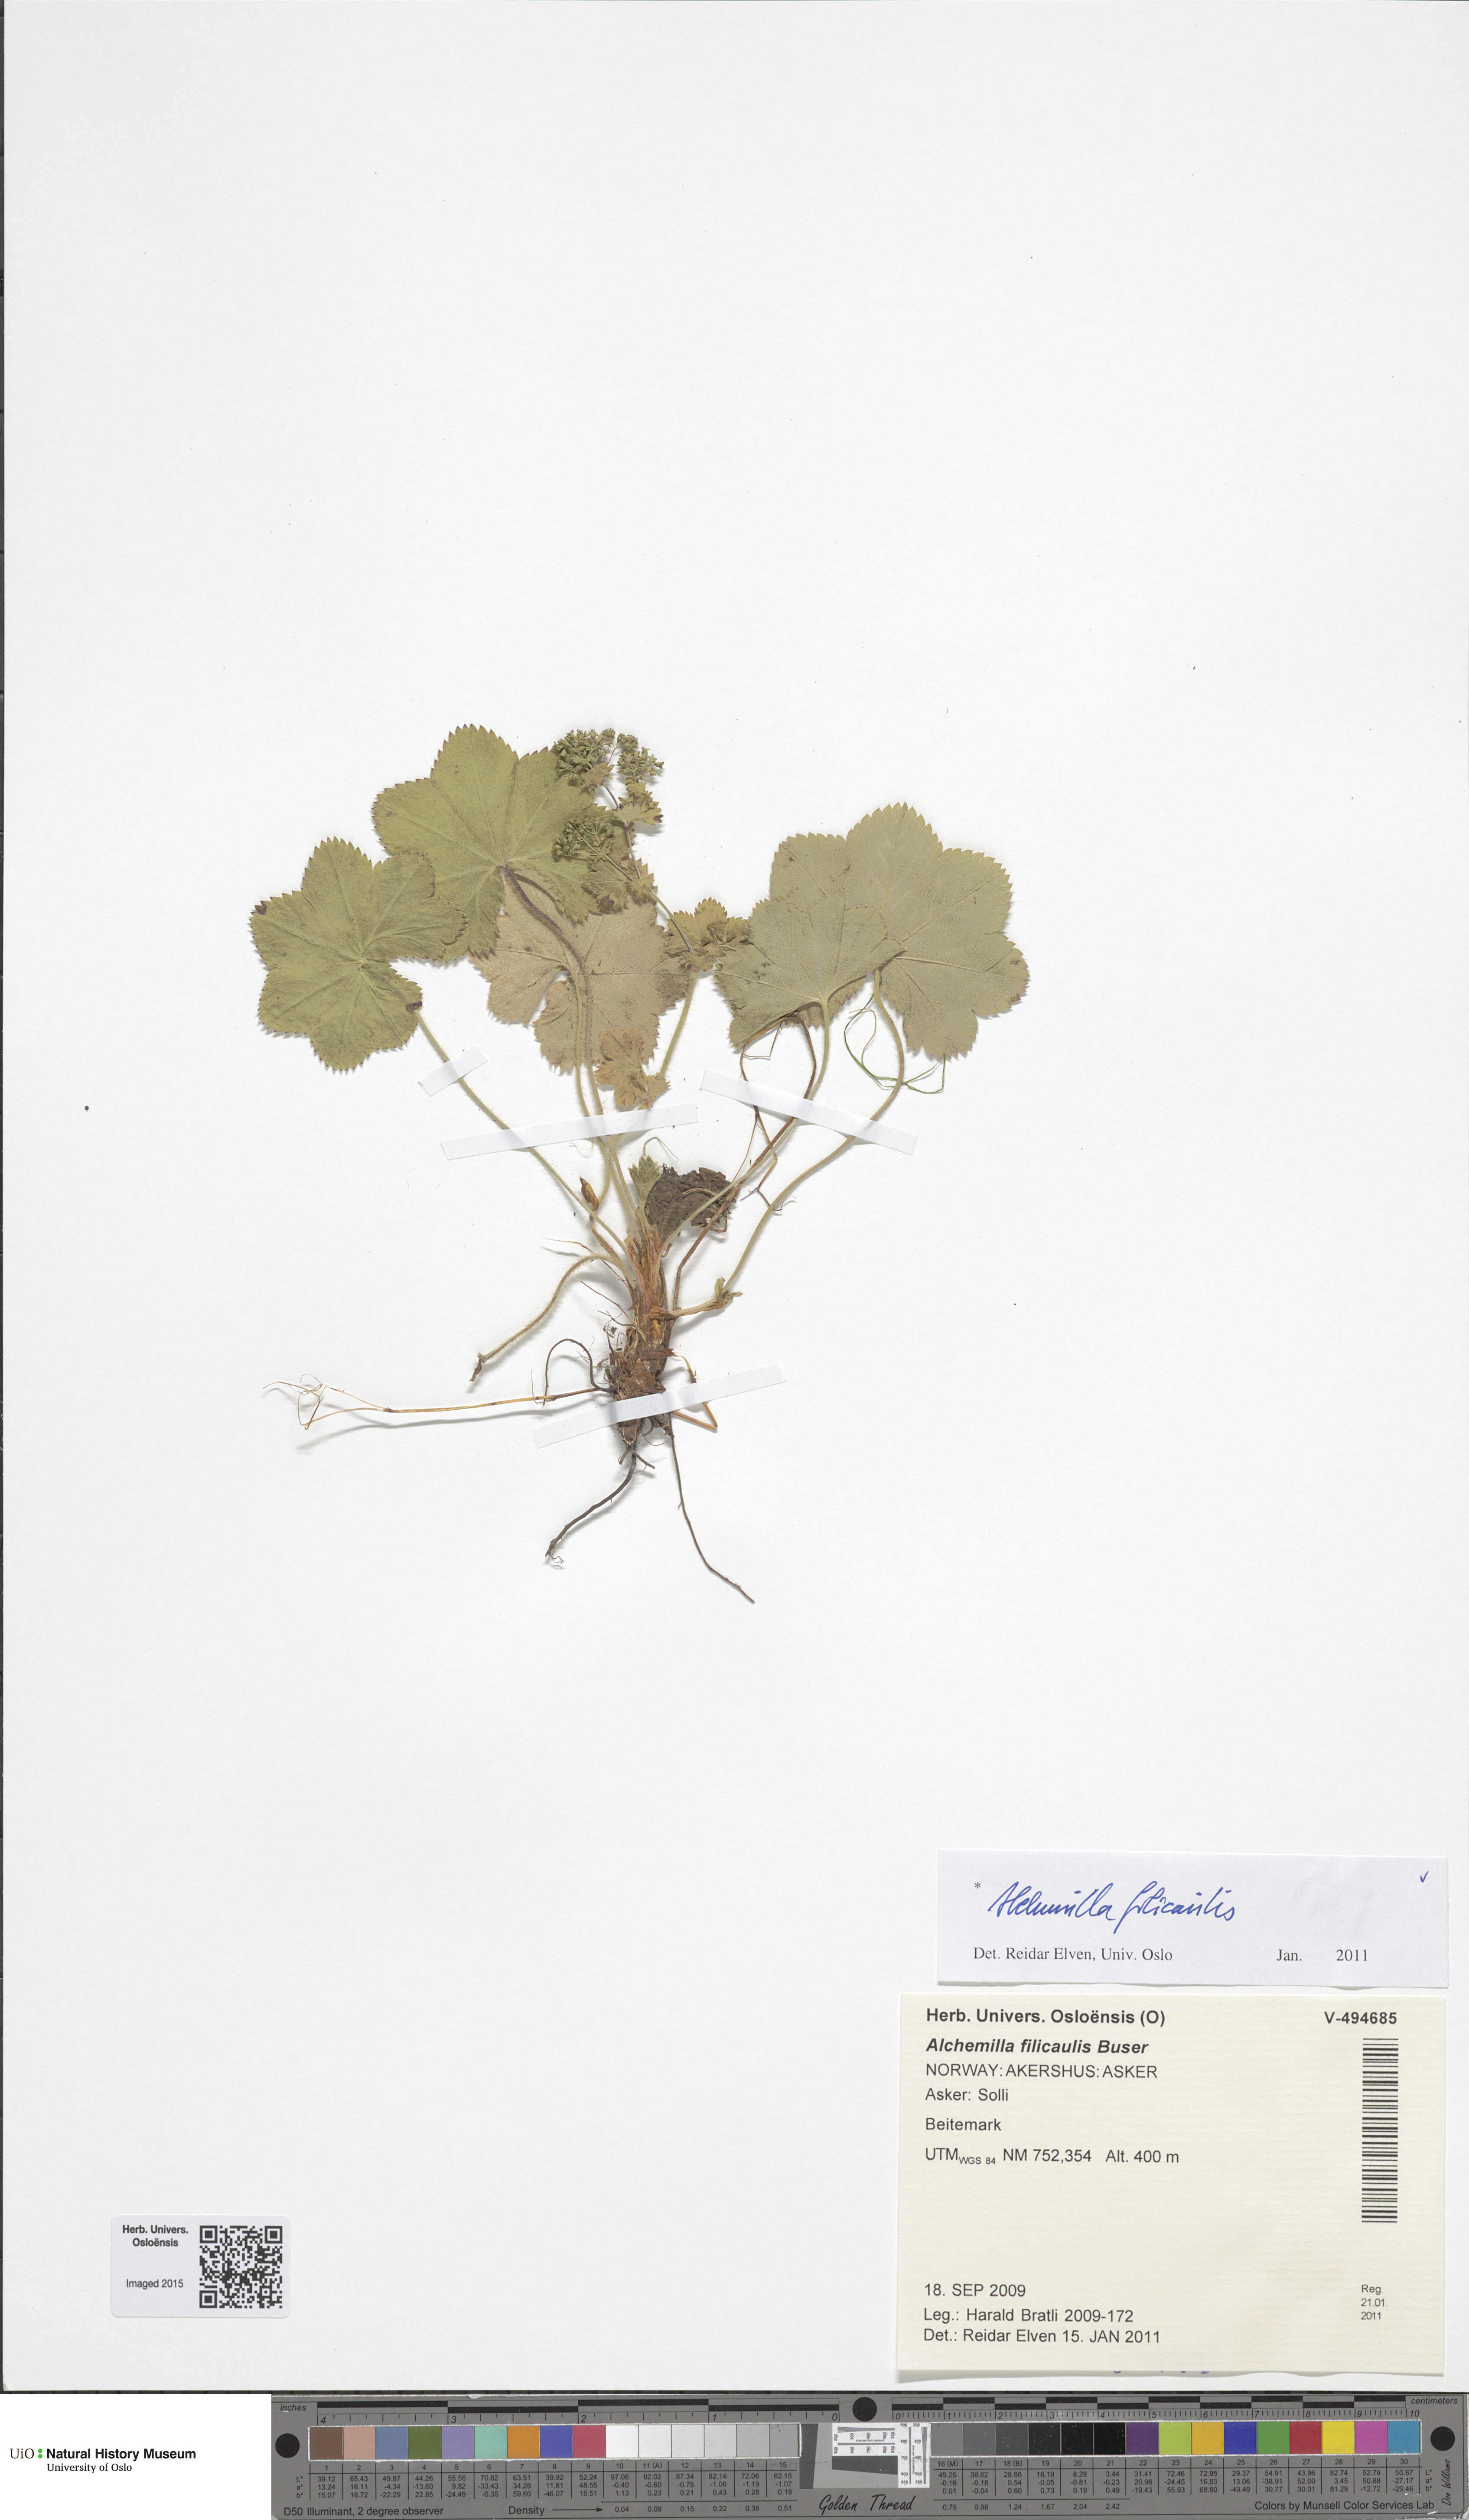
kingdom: Plantae
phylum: Tracheophyta
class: Magnoliopsida
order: Rosales
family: Rosaceae
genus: Alchemilla
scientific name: Alchemilla filicaulis
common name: Hairy lady's-mantle
